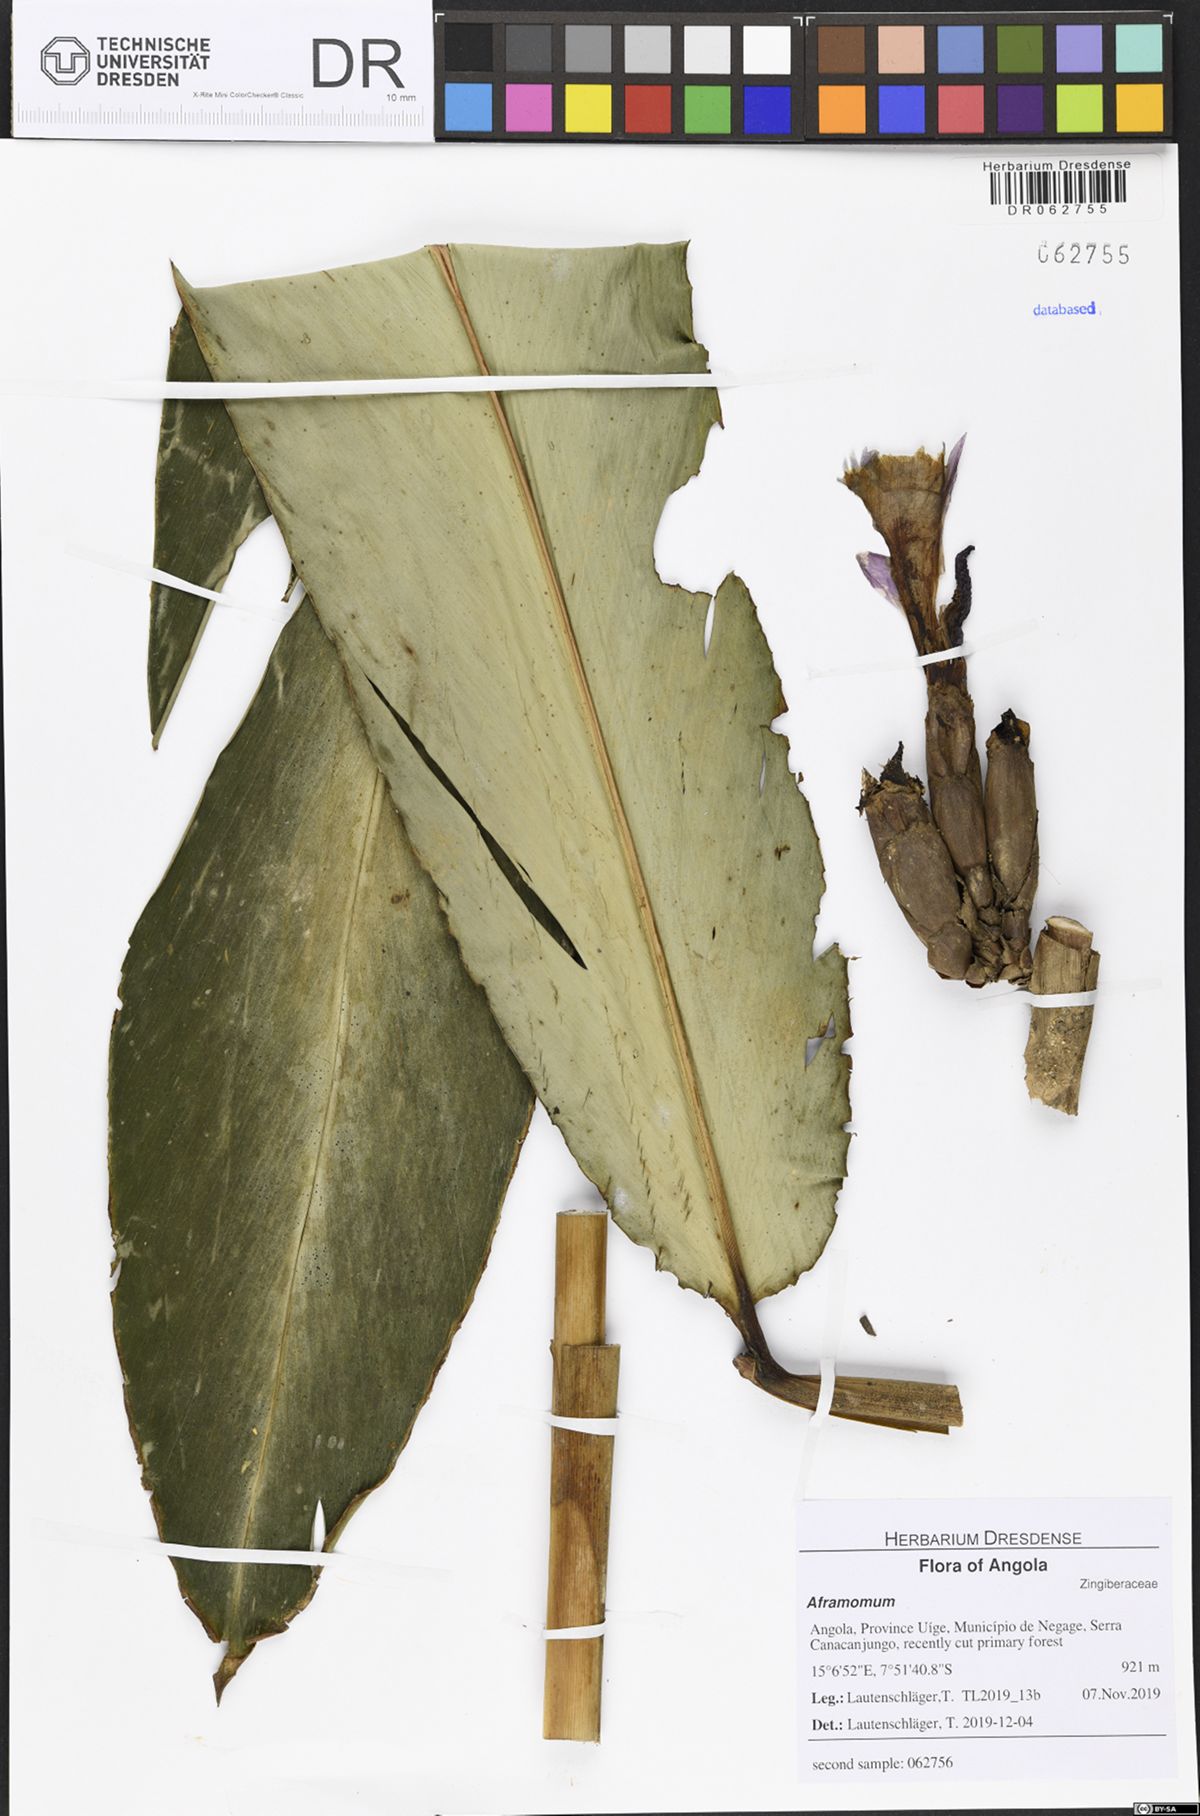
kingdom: Plantae
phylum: Tracheophyta
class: Liliopsida
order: Zingiberales
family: Zingiberaceae
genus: Aframomum
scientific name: Aframomum giganteum
